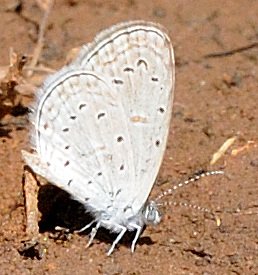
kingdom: Animalia
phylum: Arthropoda
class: Insecta
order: Lepidoptera
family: Lycaenidae
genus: Zizula
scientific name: Zizula hylax
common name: Tiny Grass Blue
